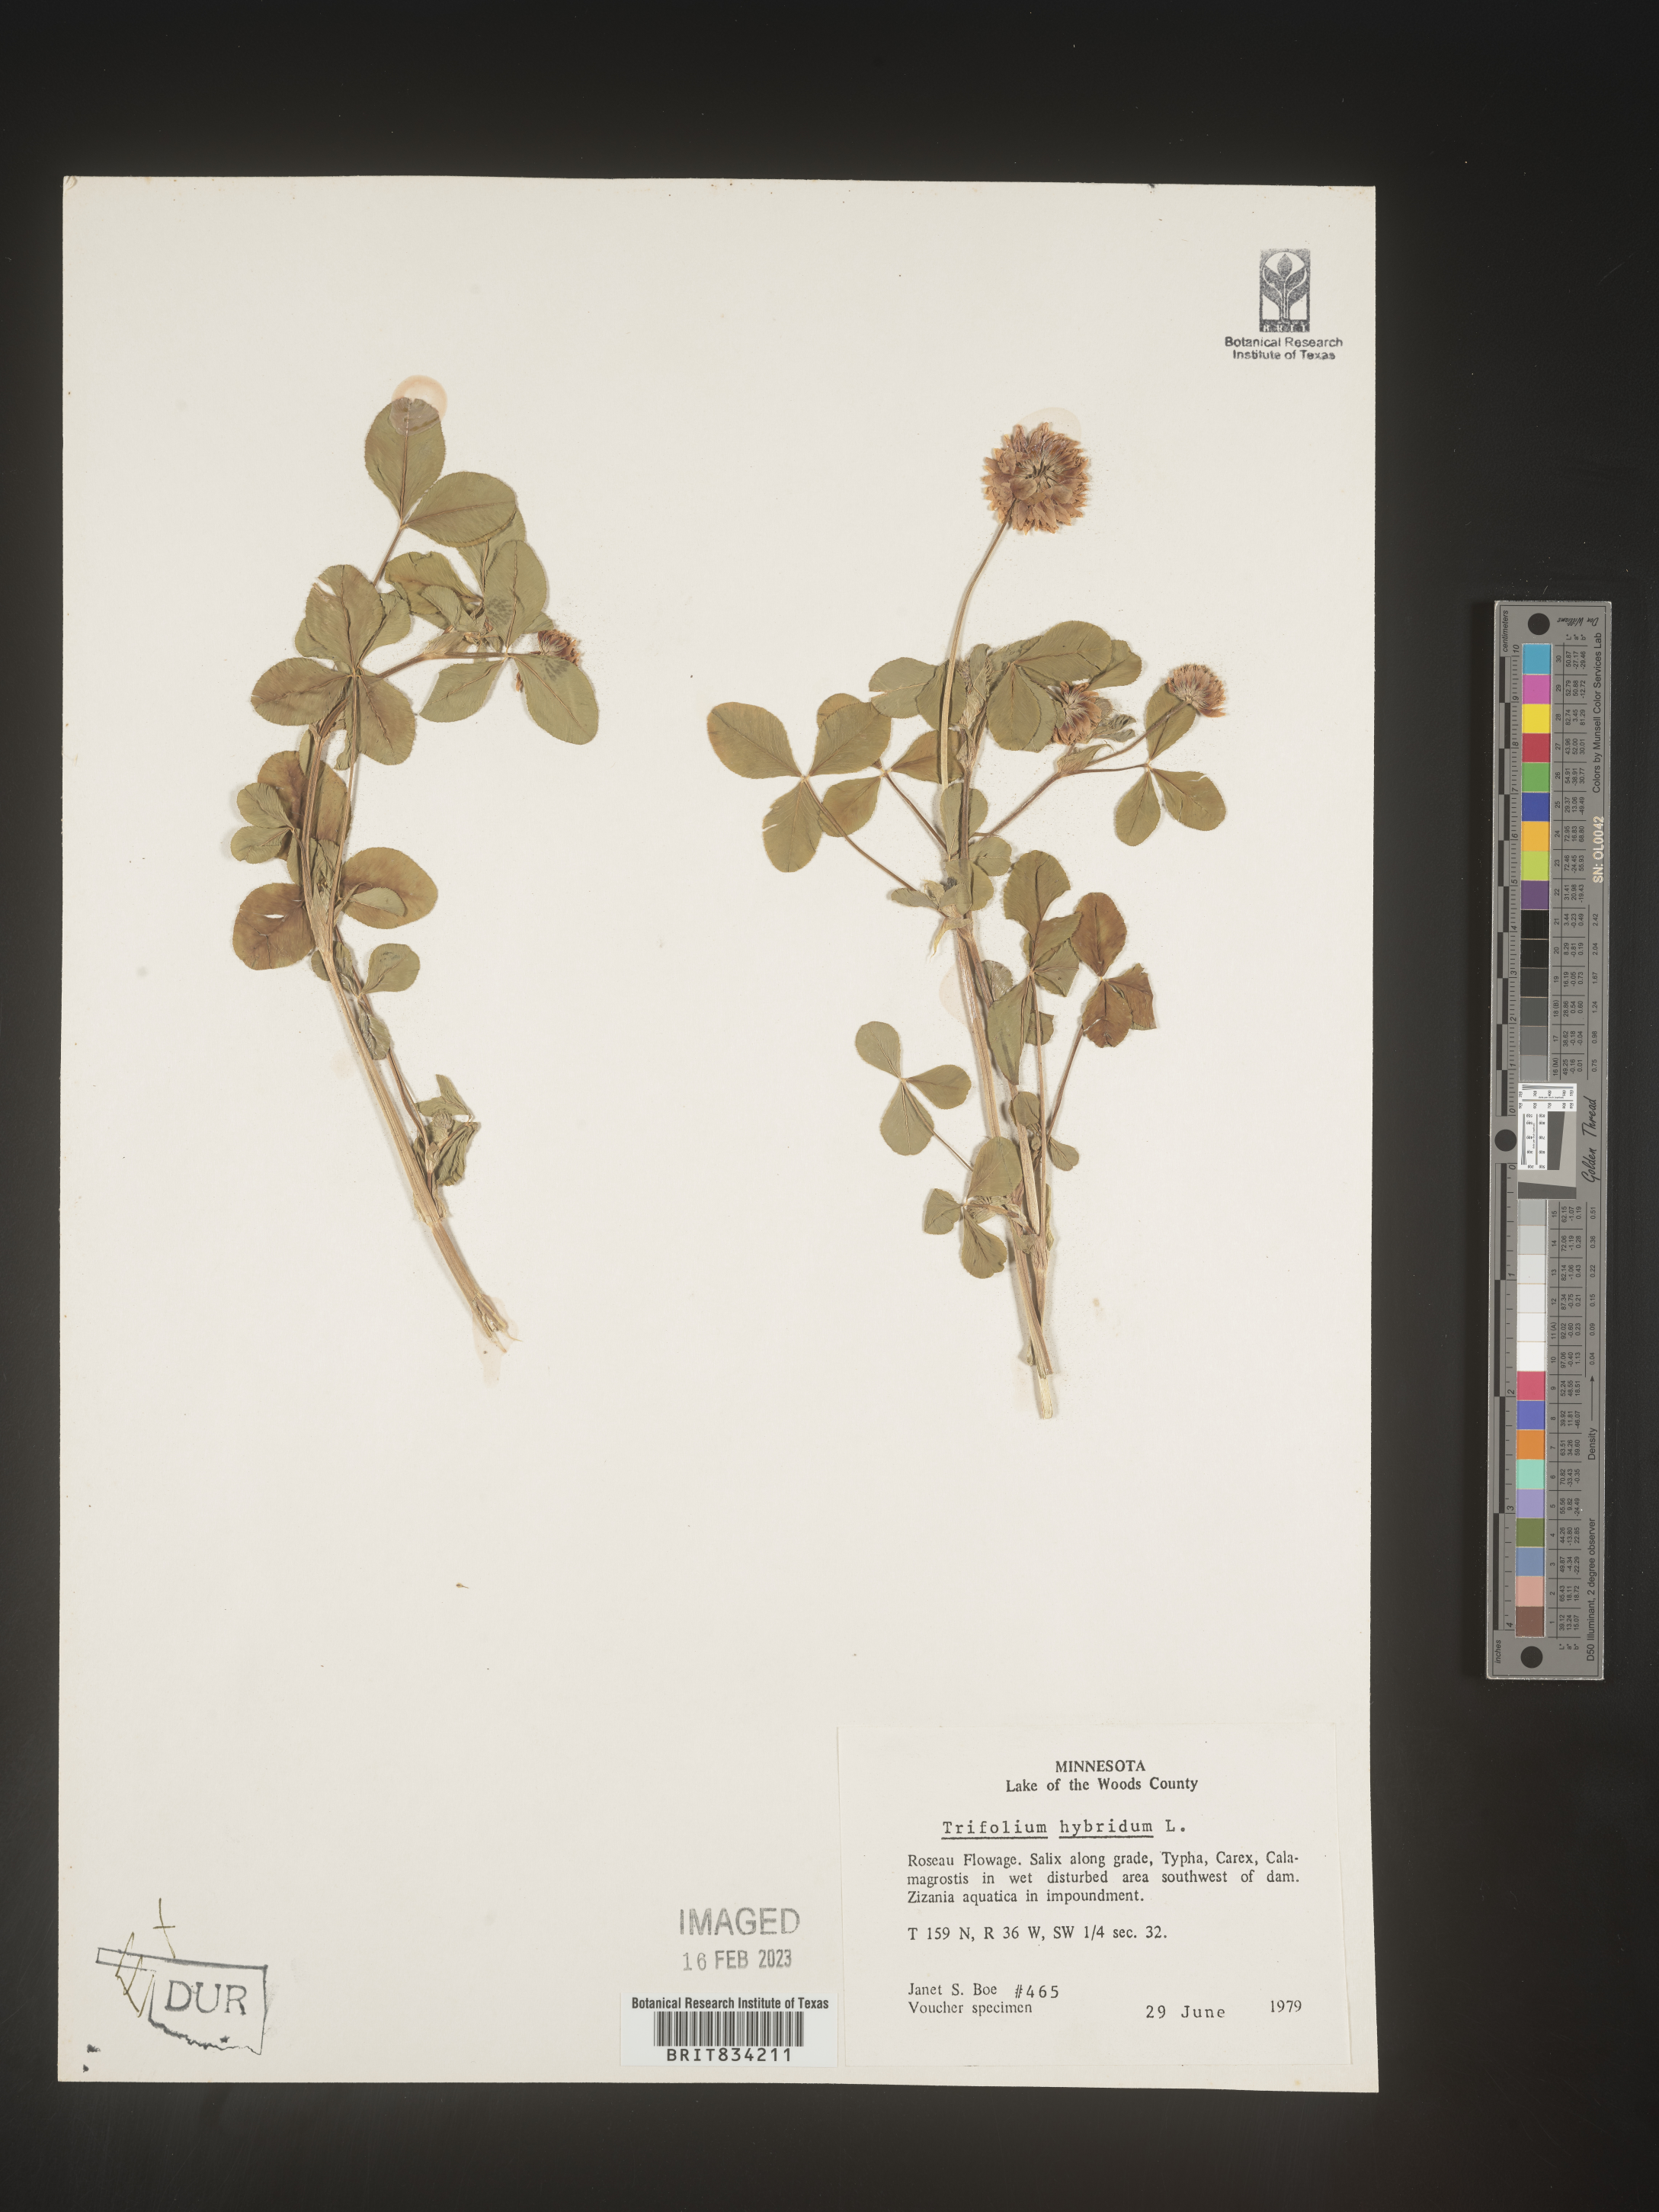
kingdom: Plantae
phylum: Tracheophyta
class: Magnoliopsida
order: Fabales
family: Fabaceae
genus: Trifolium
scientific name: Trifolium hybridum
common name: Alsike clover
